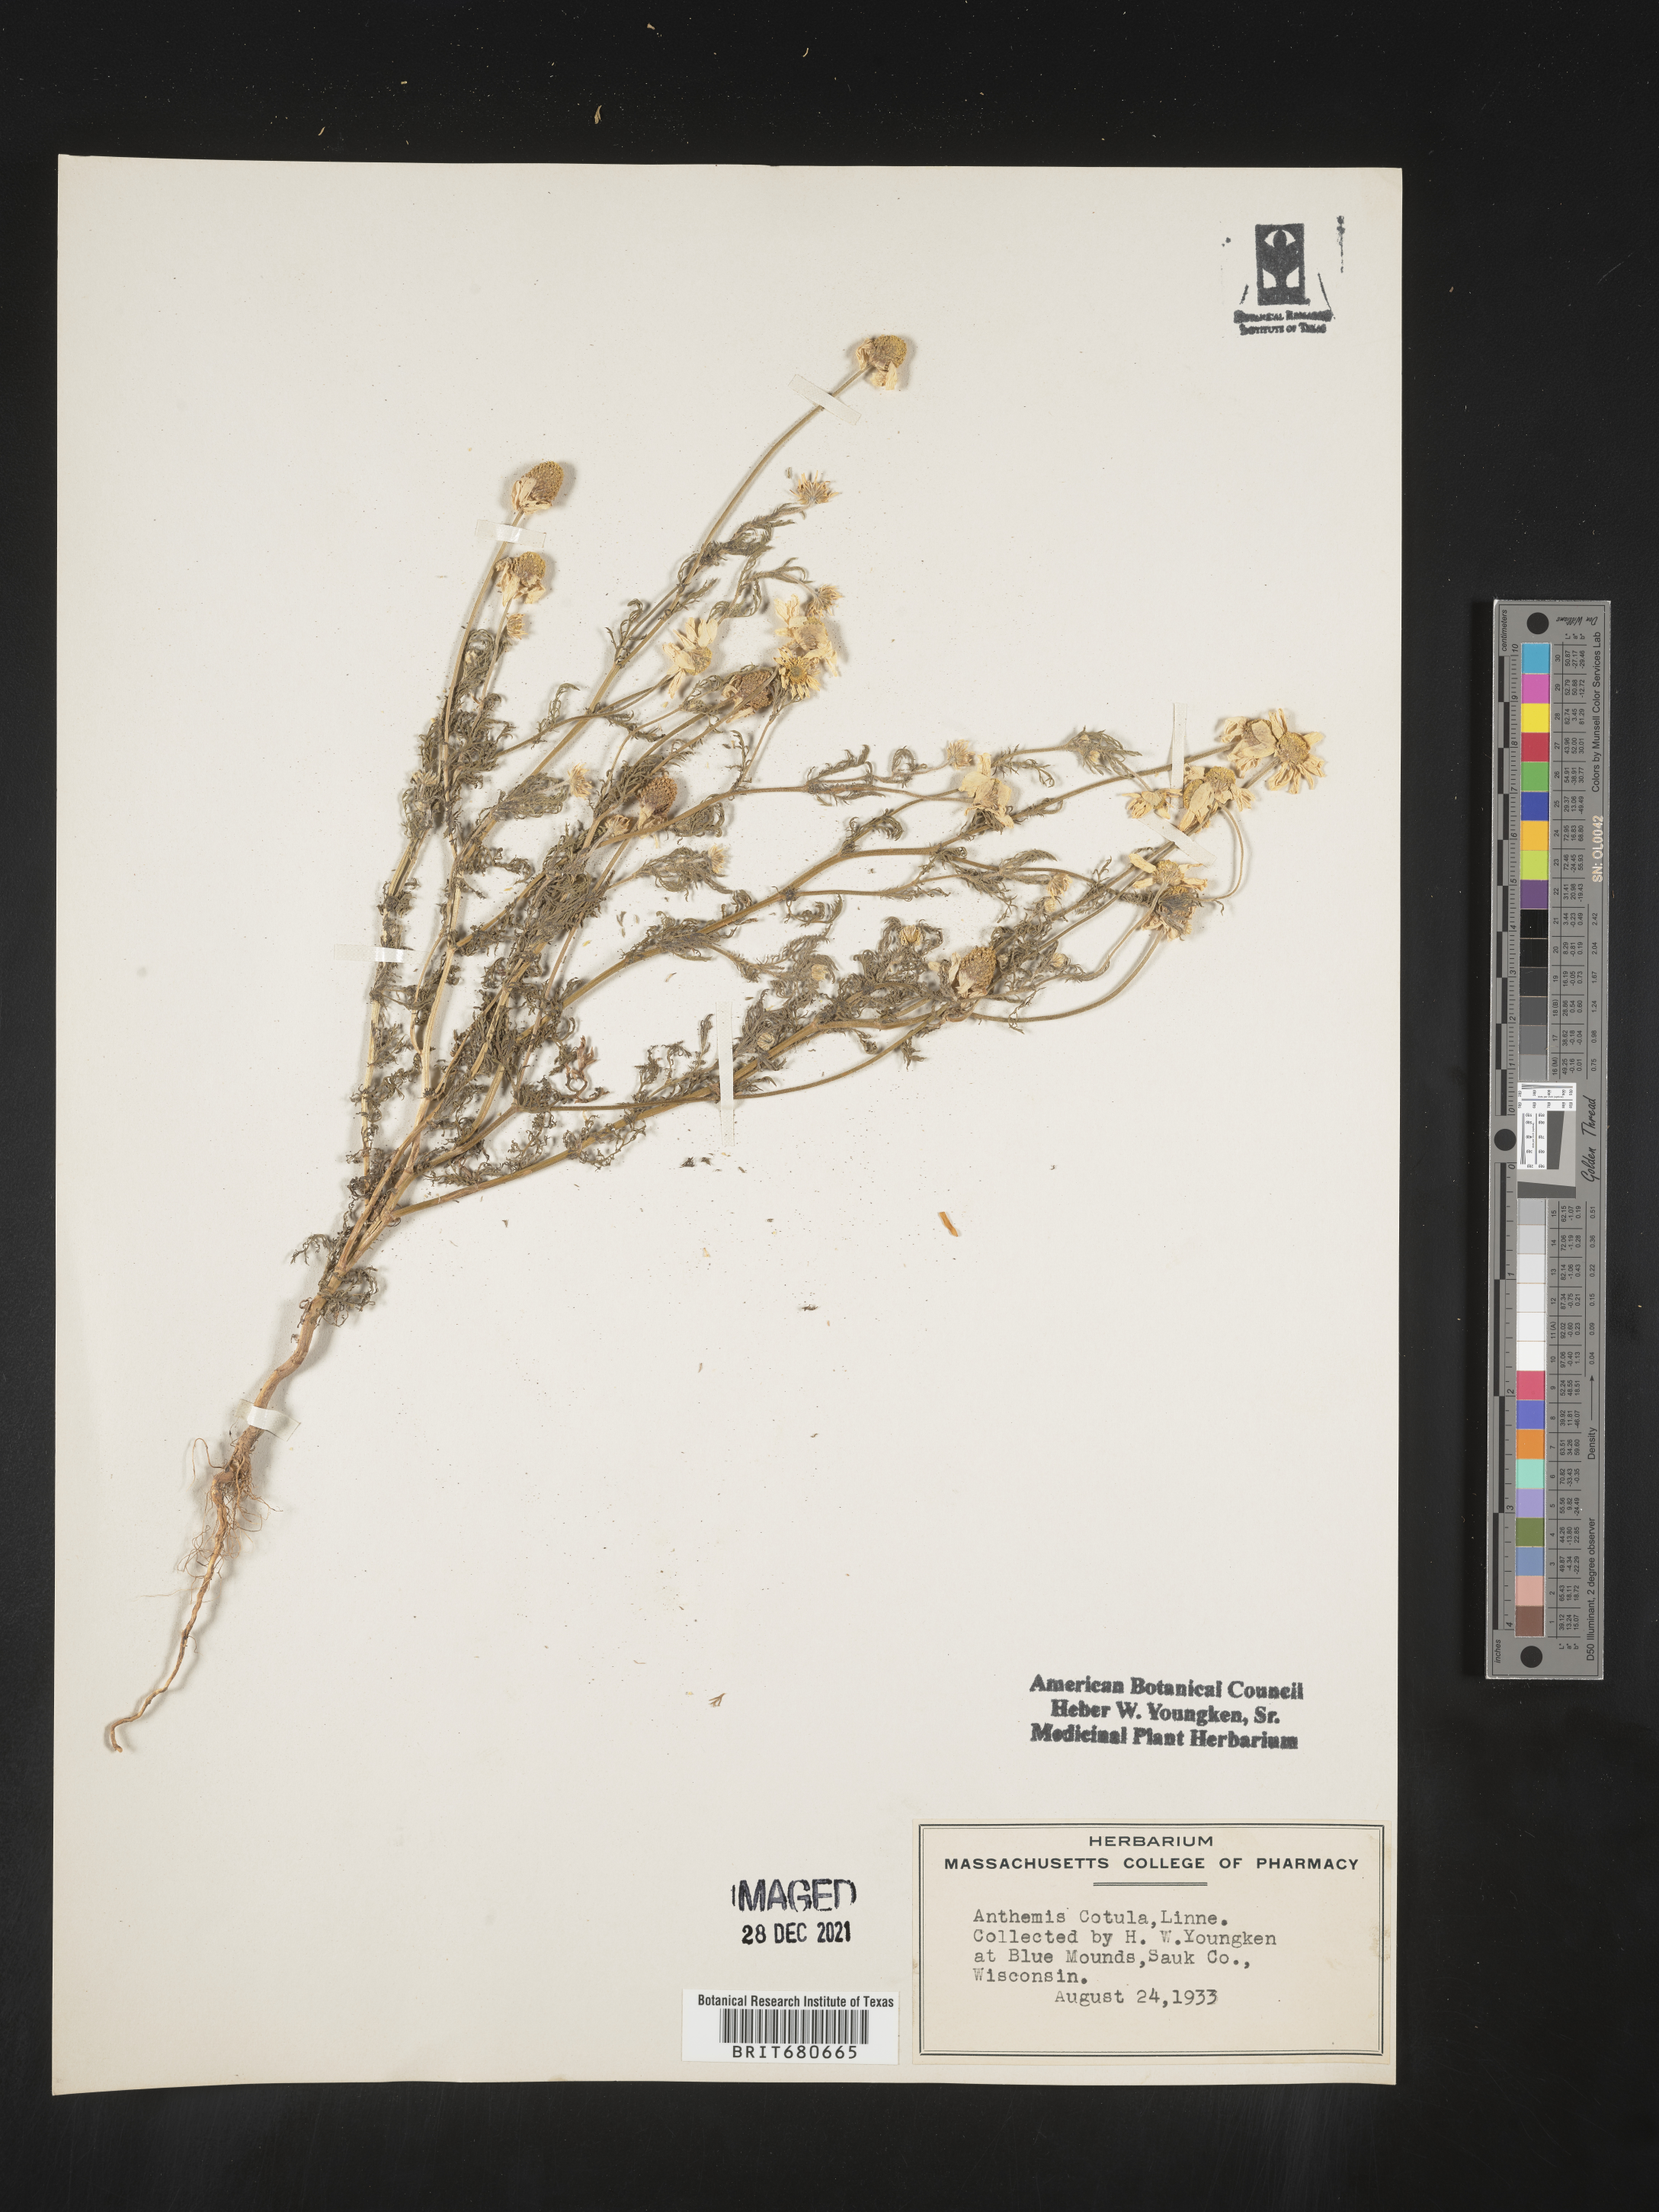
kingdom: Plantae
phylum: Tracheophyta
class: Magnoliopsida
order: Asterales
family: Asteraceae
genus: Anthemis
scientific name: Anthemis cotula
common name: Stinking chamomile
